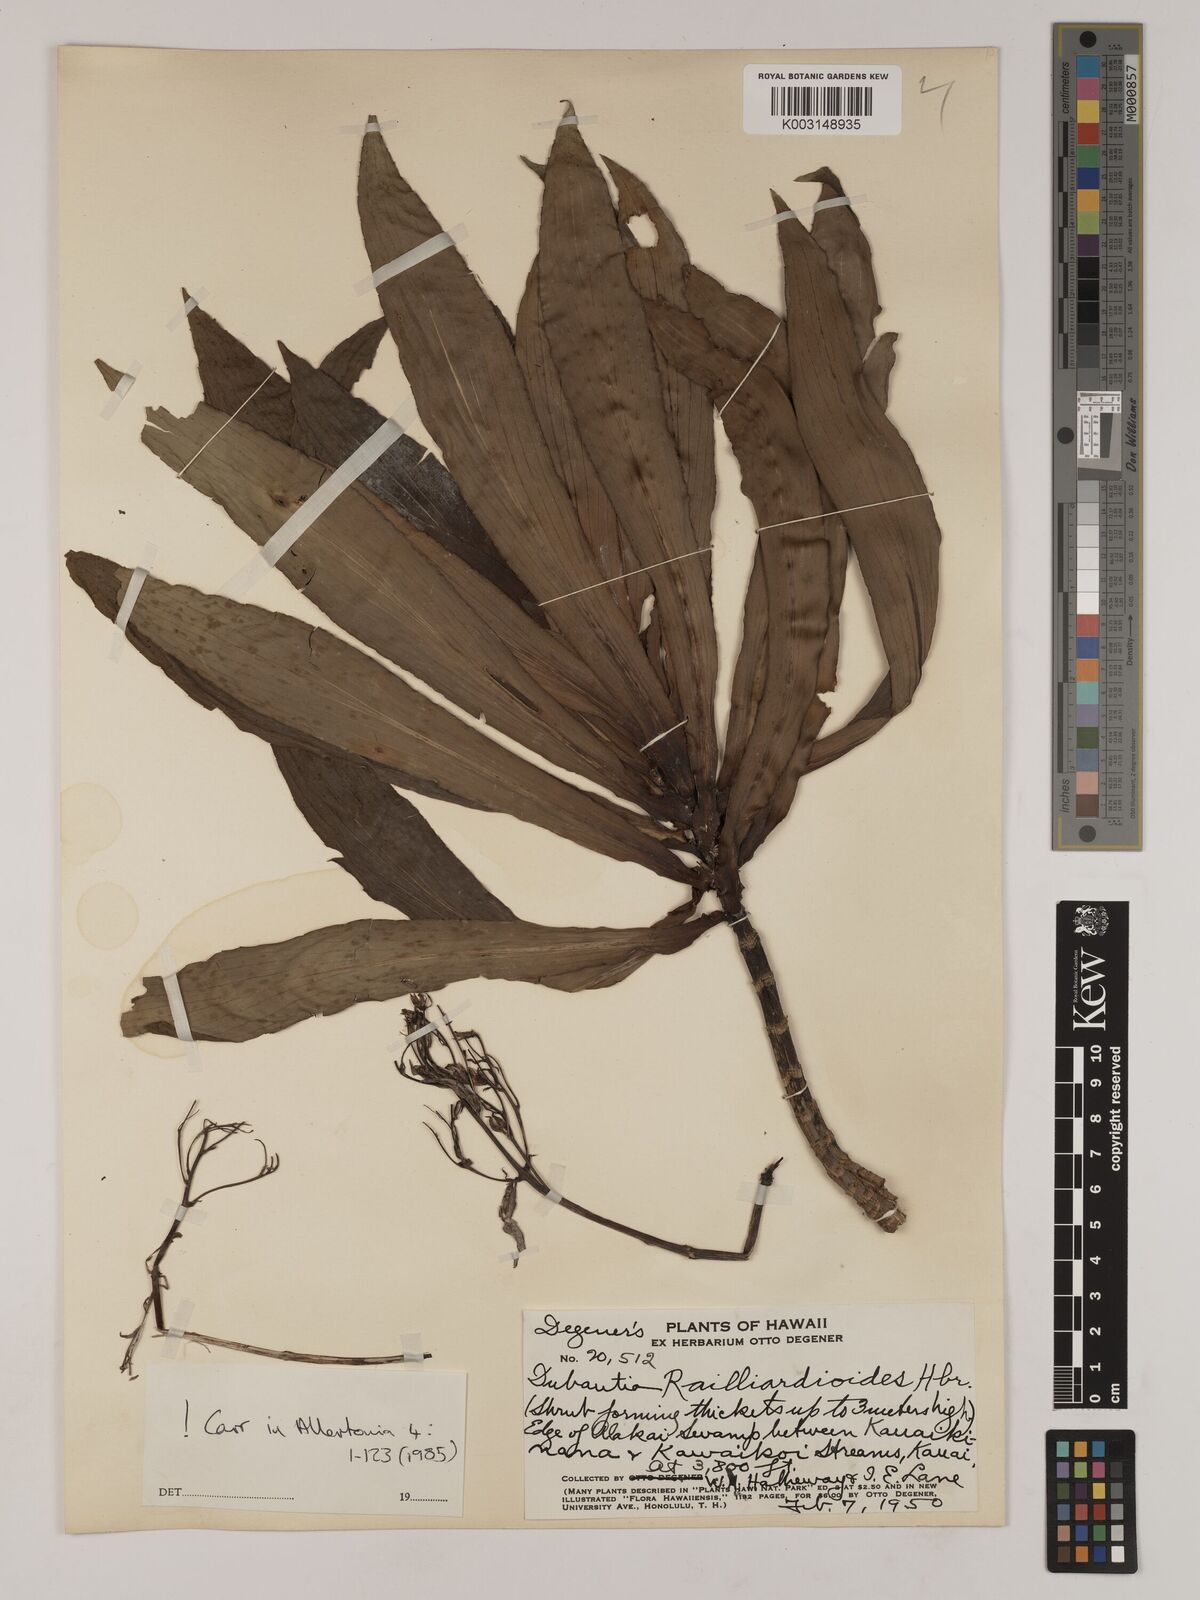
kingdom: Plantae
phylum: Tracheophyta
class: Magnoliopsida
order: Asterales
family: Asteraceae
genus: Dubautia
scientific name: Dubautia raillardioides
